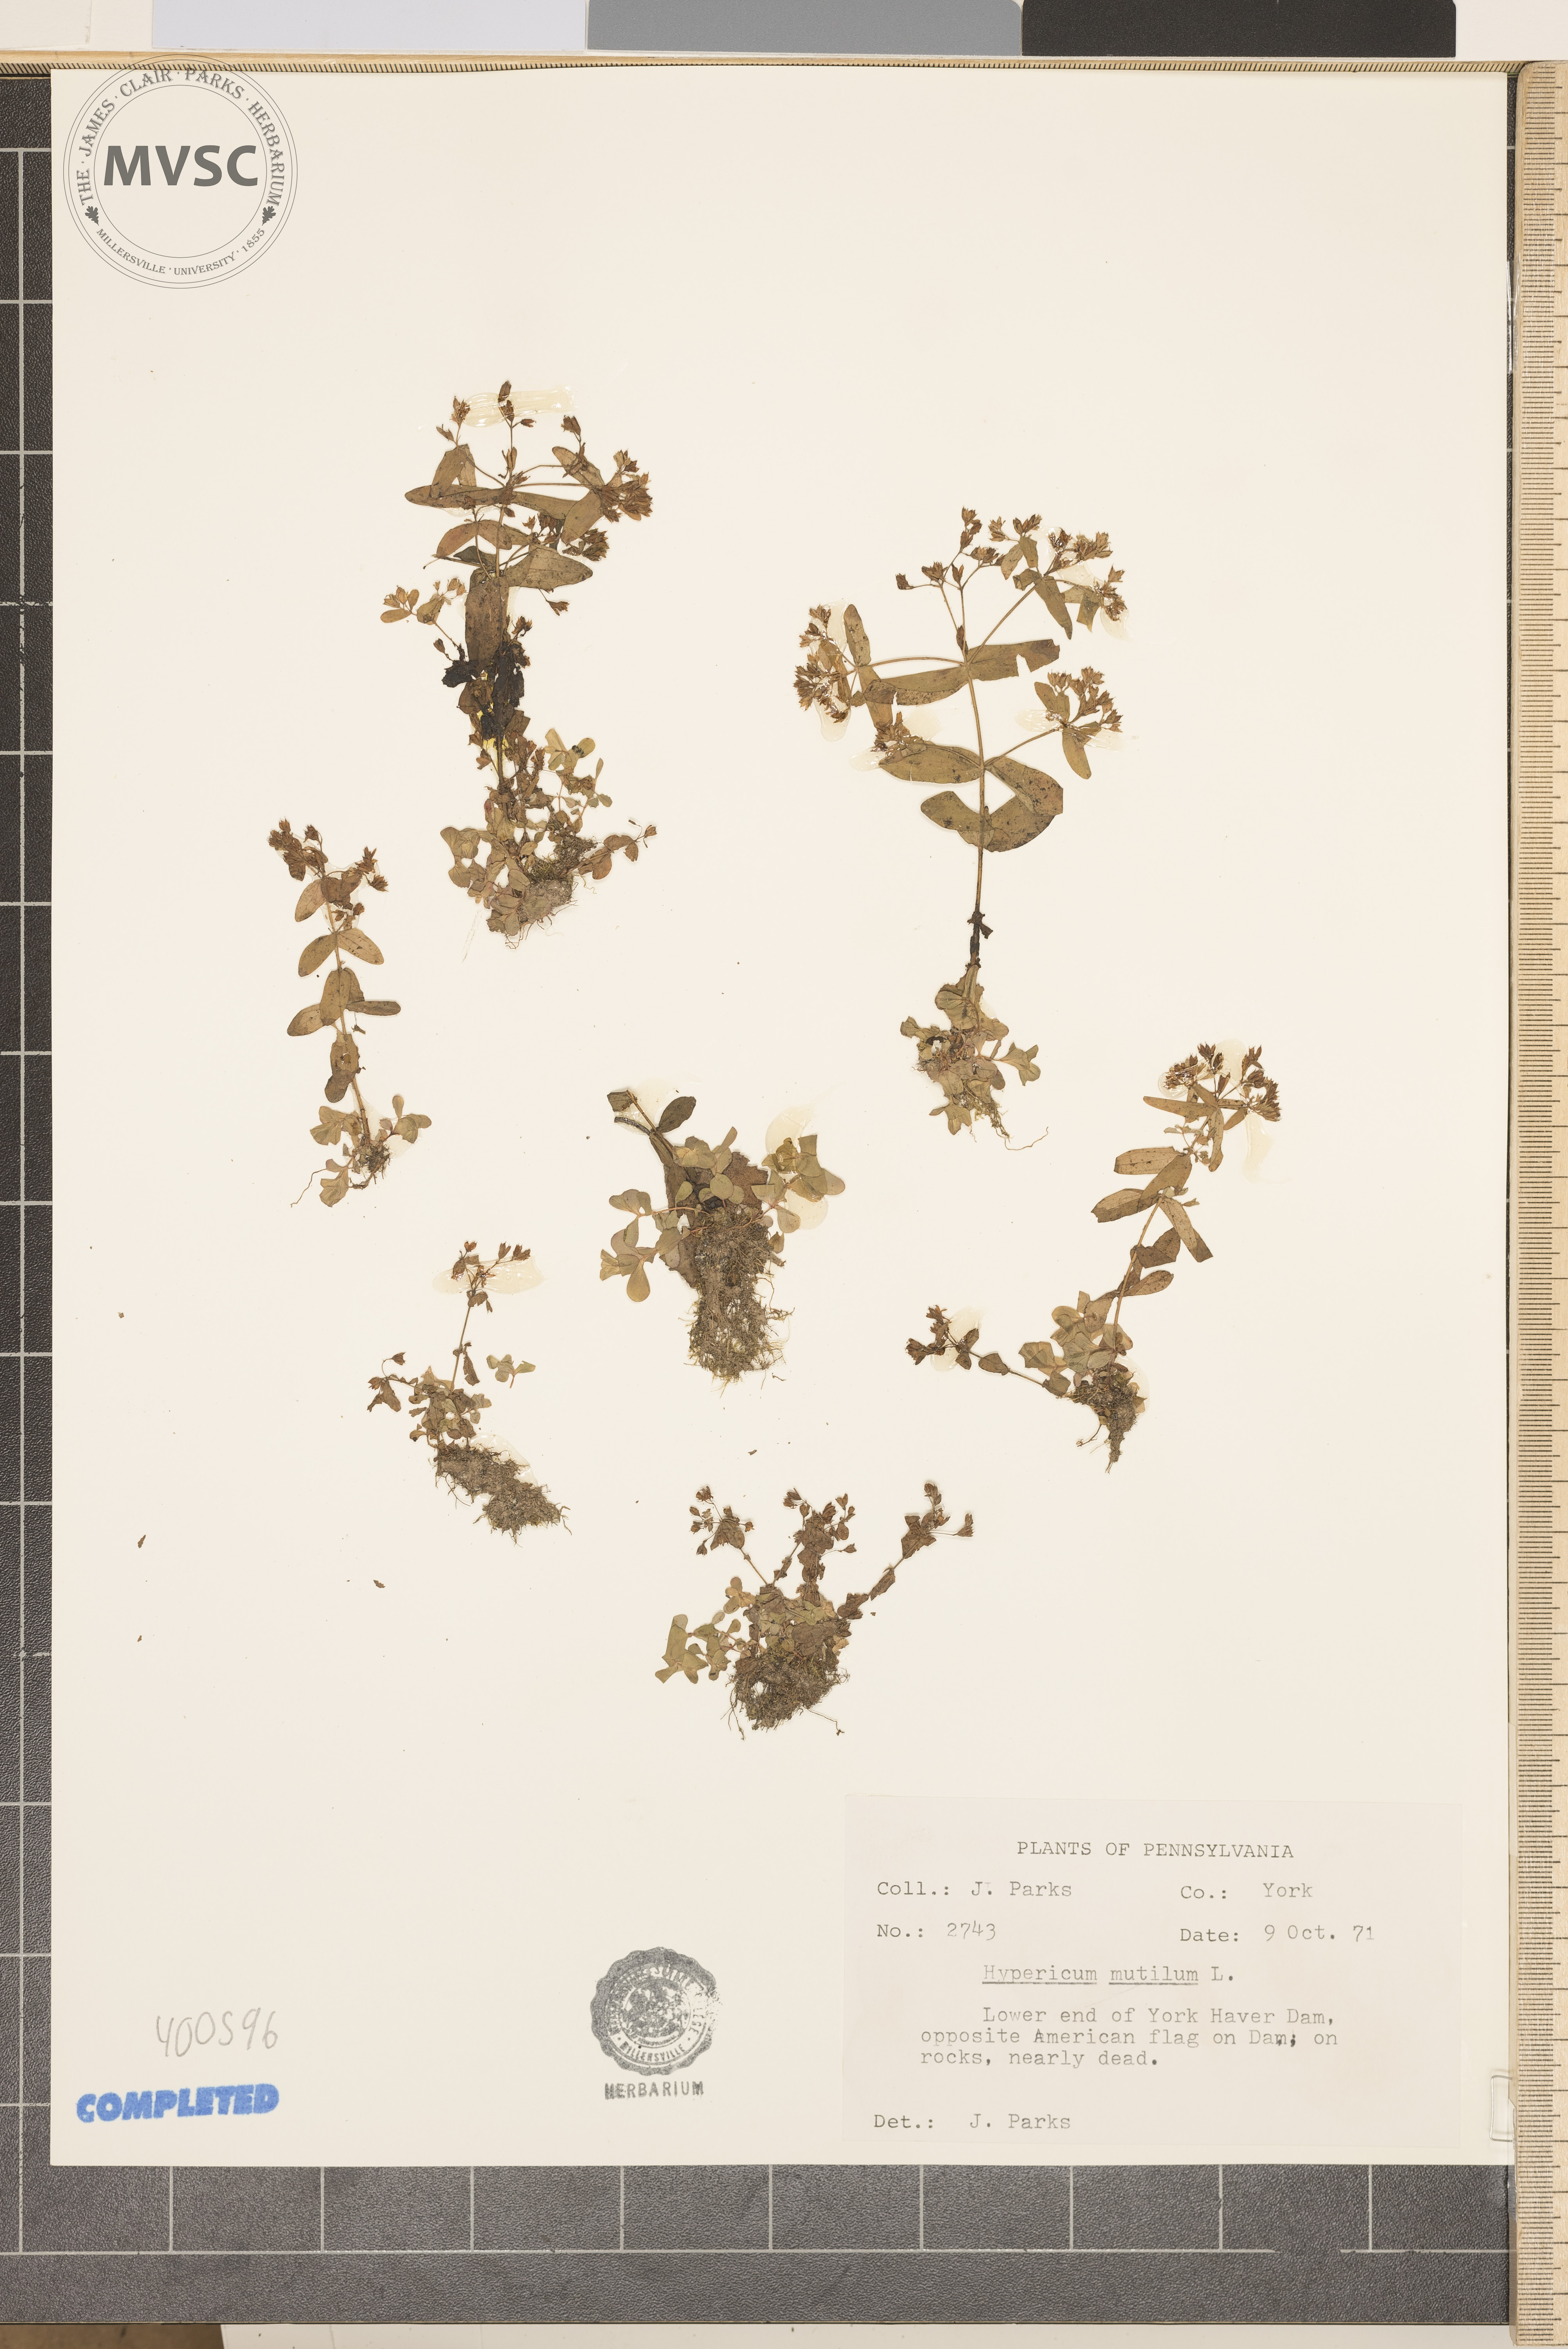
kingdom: Plantae
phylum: Tracheophyta
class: Magnoliopsida
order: Malpighiales
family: Hypericaceae
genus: Hypericum
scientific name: Hypericum mutilum
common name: Dwarf St. John's-wort
